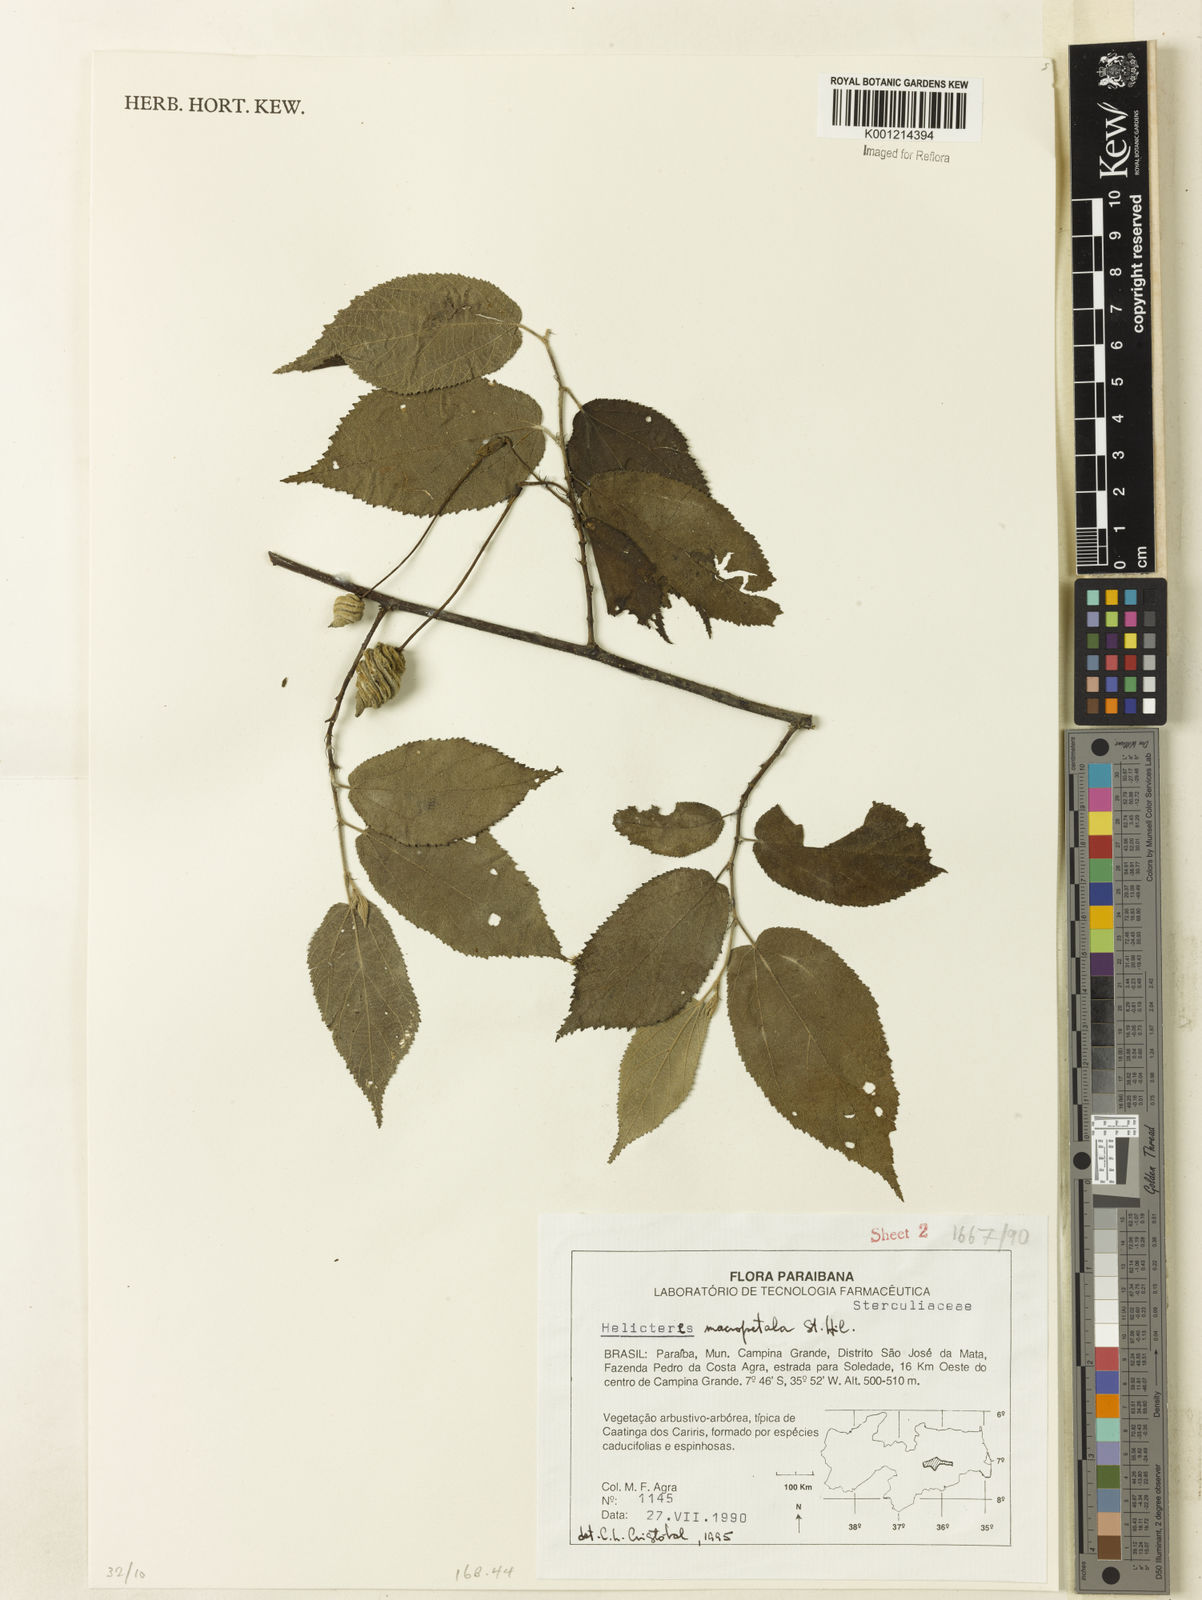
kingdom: Plantae
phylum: Tracheophyta
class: Magnoliopsida
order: Malvales
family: Malvaceae
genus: Helicteres
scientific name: Helicteres
